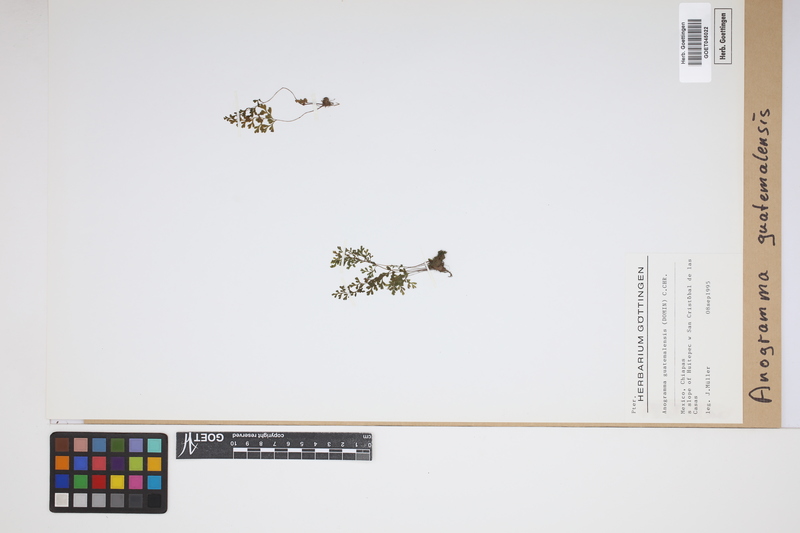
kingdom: Plantae
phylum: Tracheophyta
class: Polypodiopsida
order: Polypodiales
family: Pteridaceae
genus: Anogramma
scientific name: Anogramma leptophylla
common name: Jersey fern
